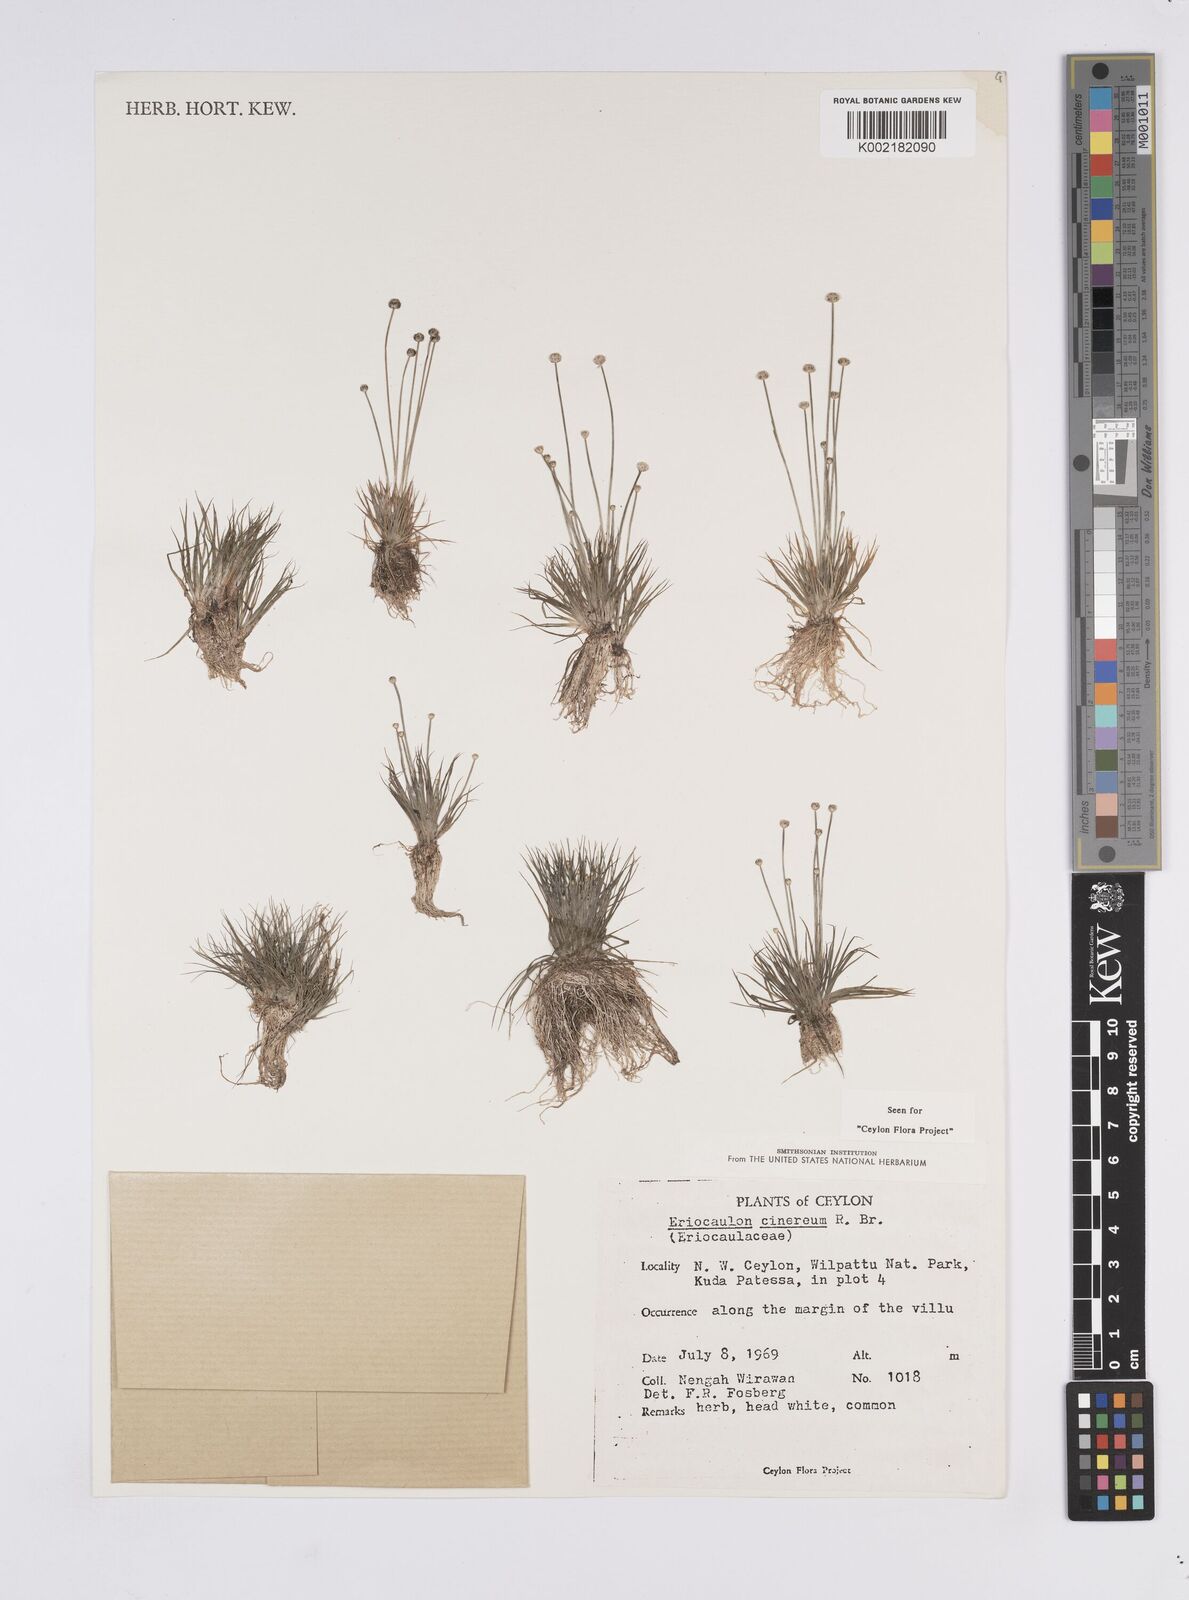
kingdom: Plantae
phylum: Tracheophyta
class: Liliopsida
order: Poales
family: Eriocaulaceae
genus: Eriocaulon
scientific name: Eriocaulon cinereum
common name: Ashy pipewort
